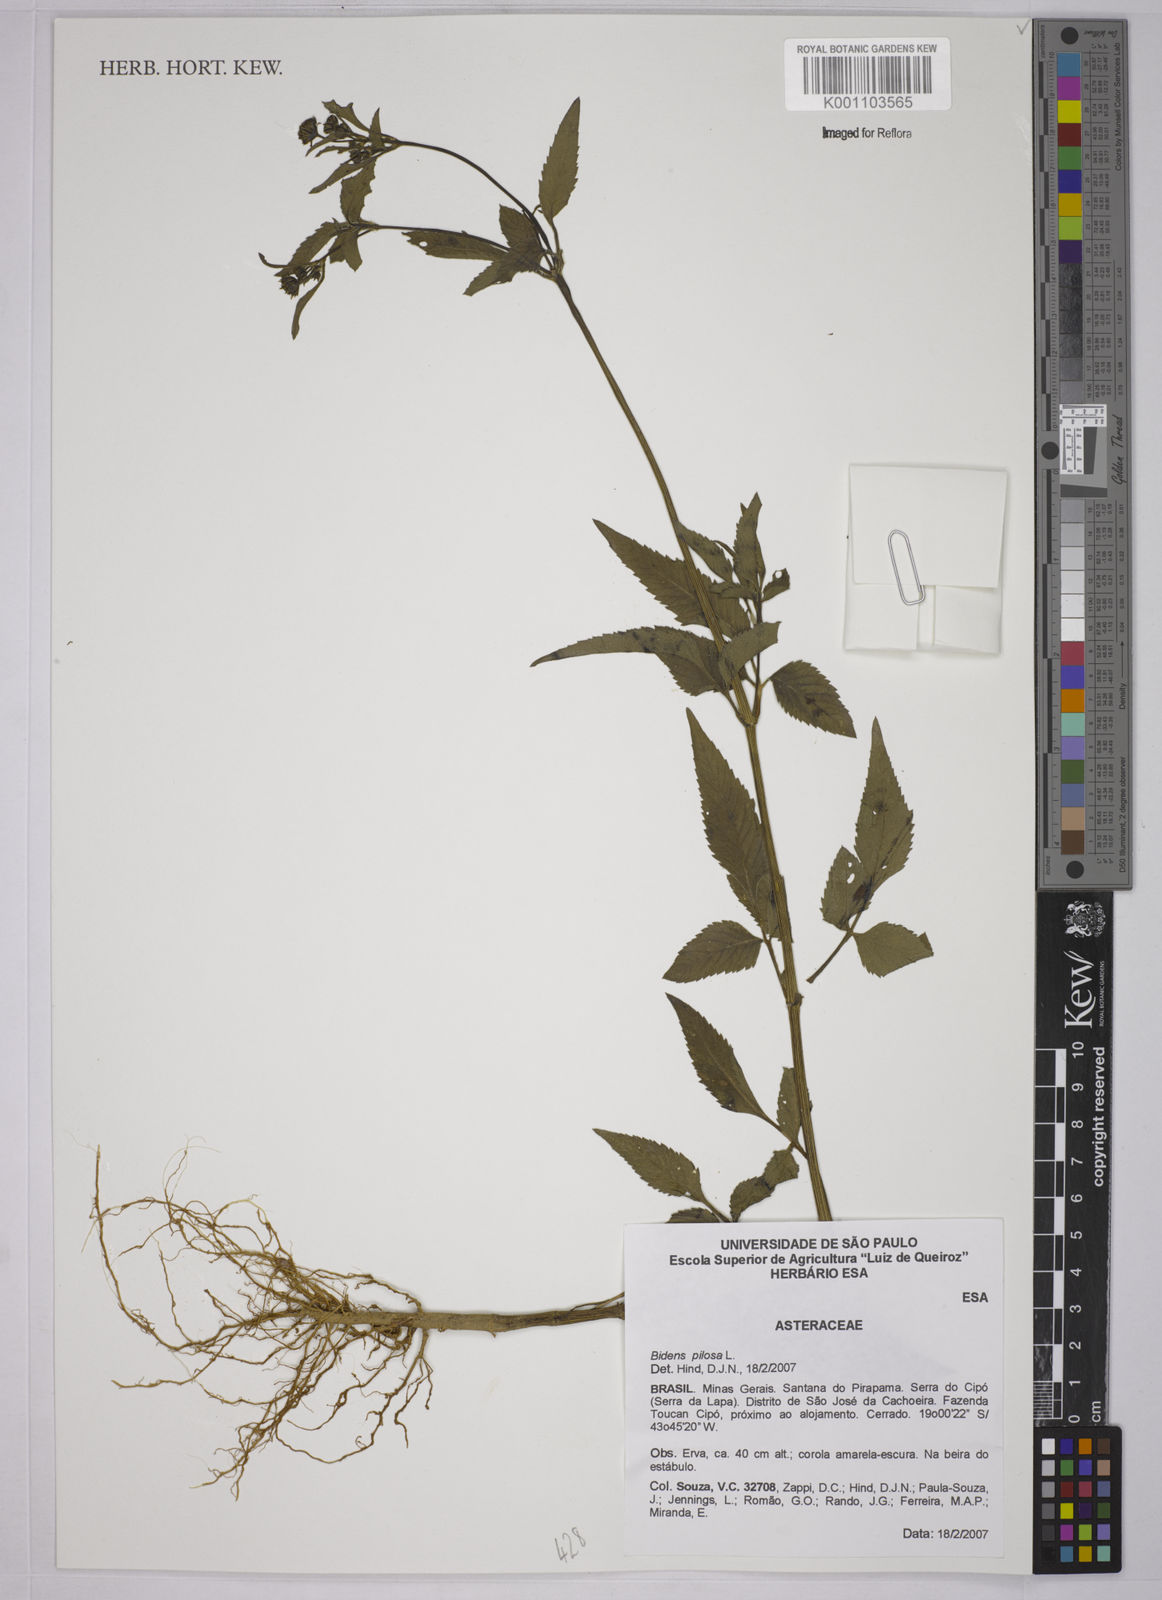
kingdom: Plantae
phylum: Tracheophyta
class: Magnoliopsida
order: Asterales
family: Asteraceae
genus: Bidens
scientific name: Bidens pilosa
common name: Black-jack
